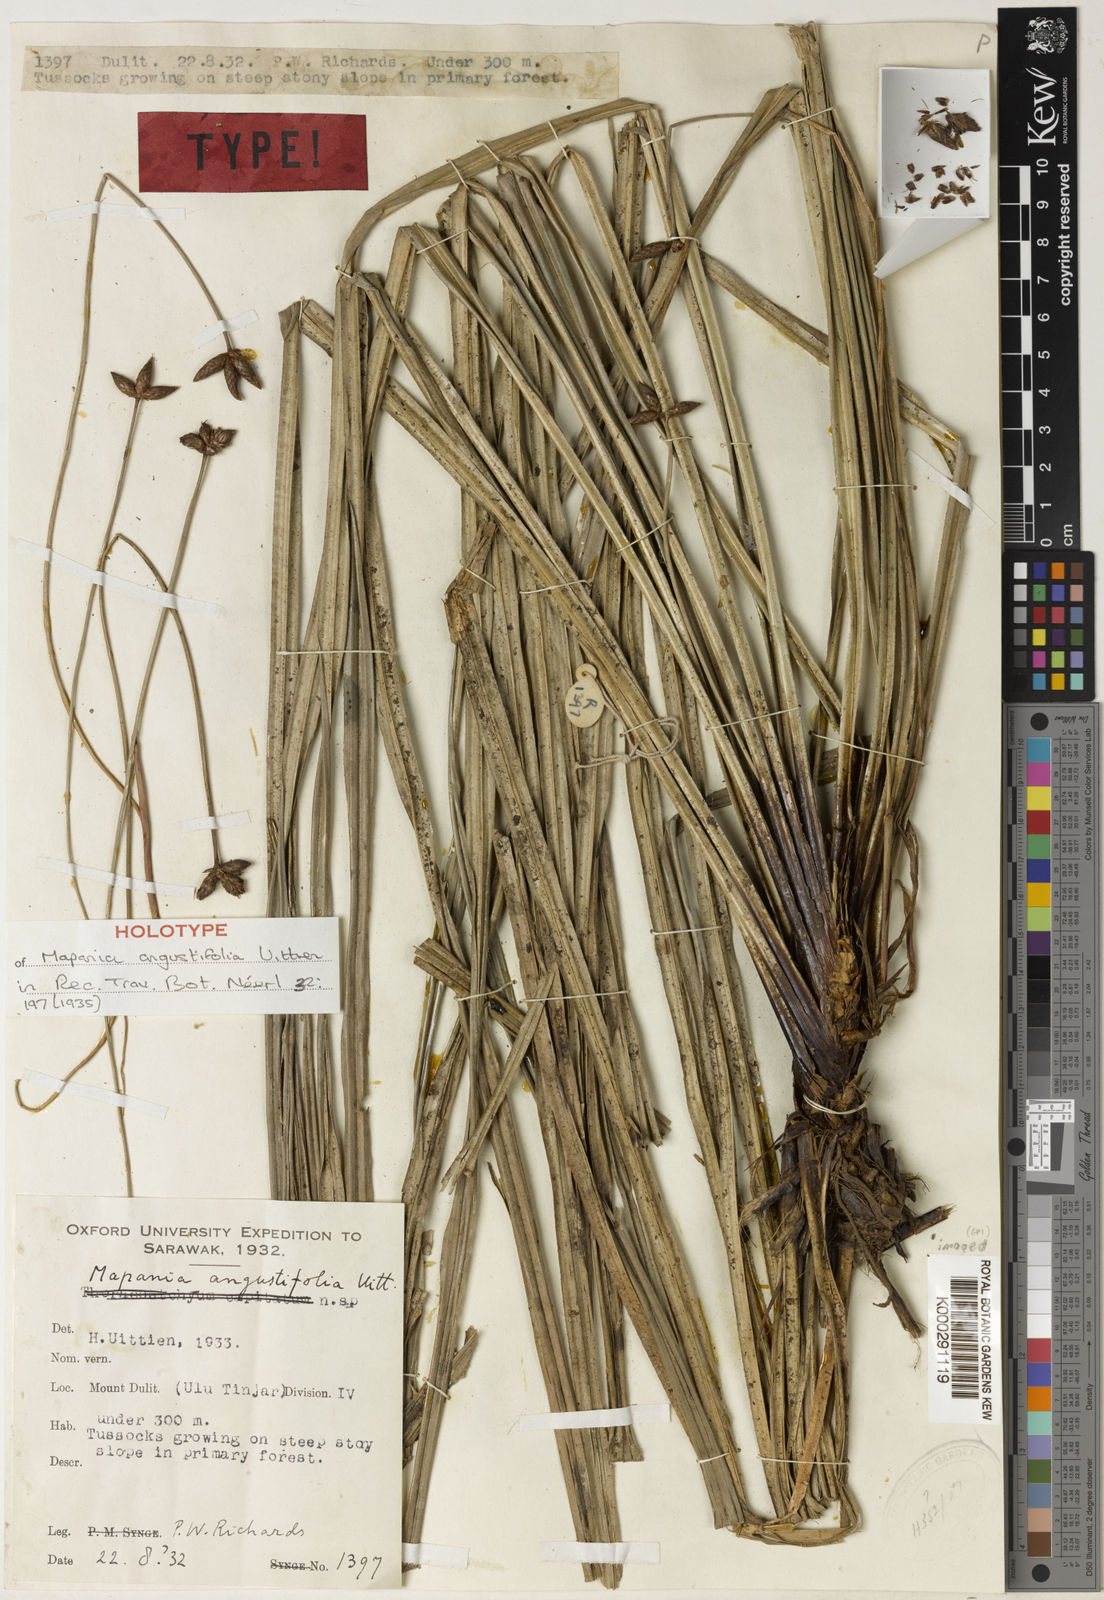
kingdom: Plantae
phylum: Tracheophyta
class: Liliopsida
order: Poales
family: Cyperaceae
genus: Mapania
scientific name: Mapania angustifolia
